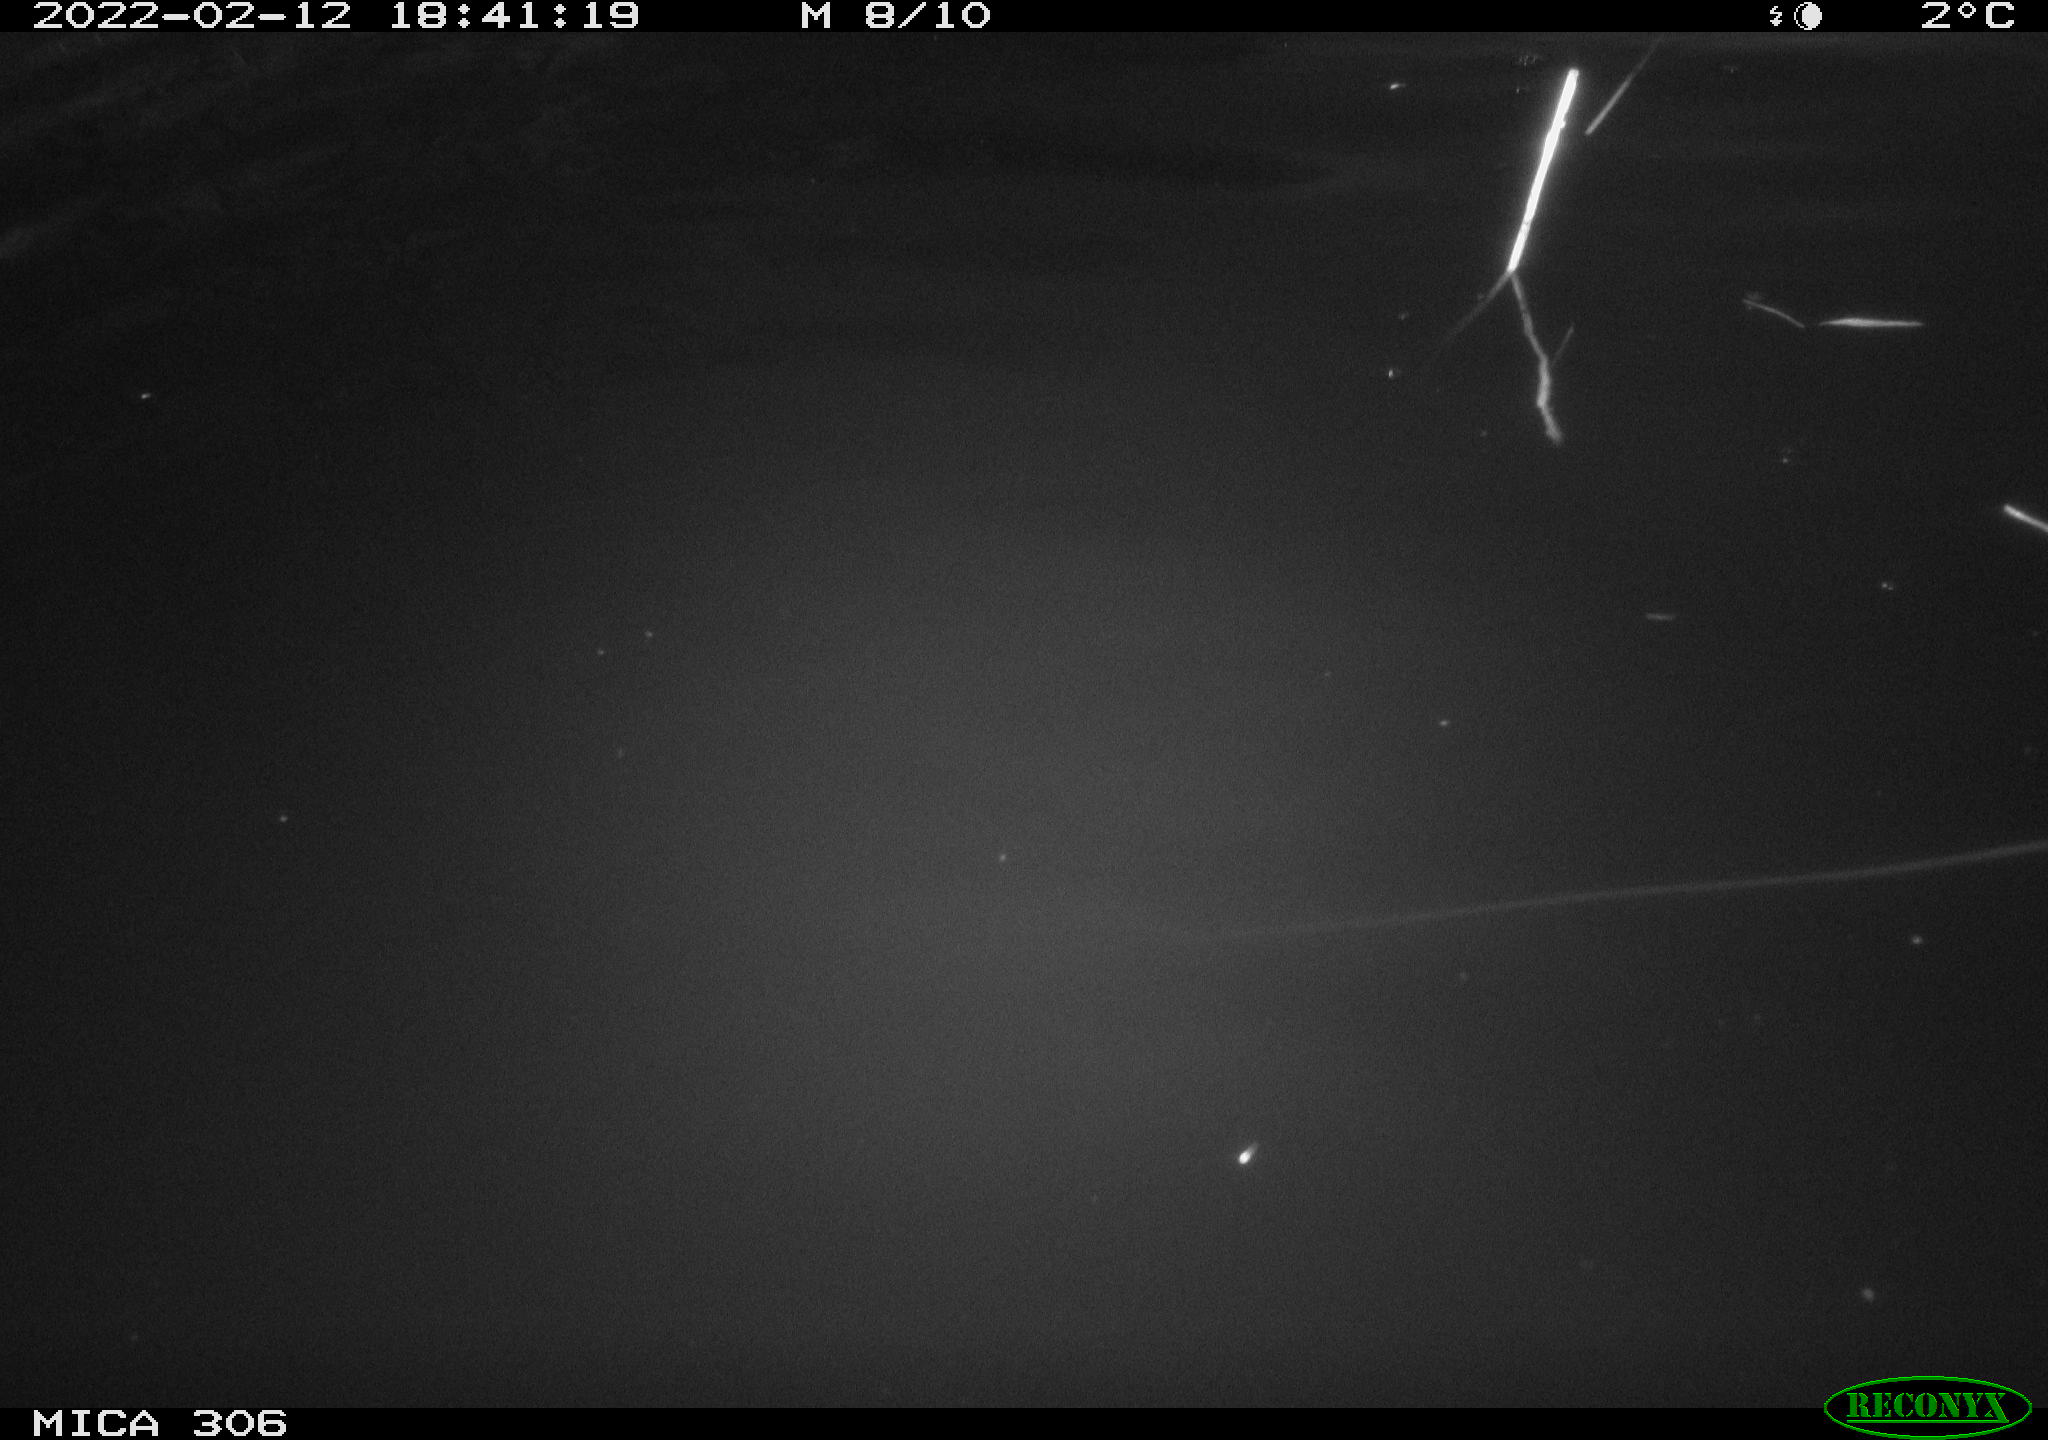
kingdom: Animalia
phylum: Chordata
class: Mammalia
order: Rodentia
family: Cricetidae
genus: Ondatra
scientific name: Ondatra zibethicus
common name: Muskrat
